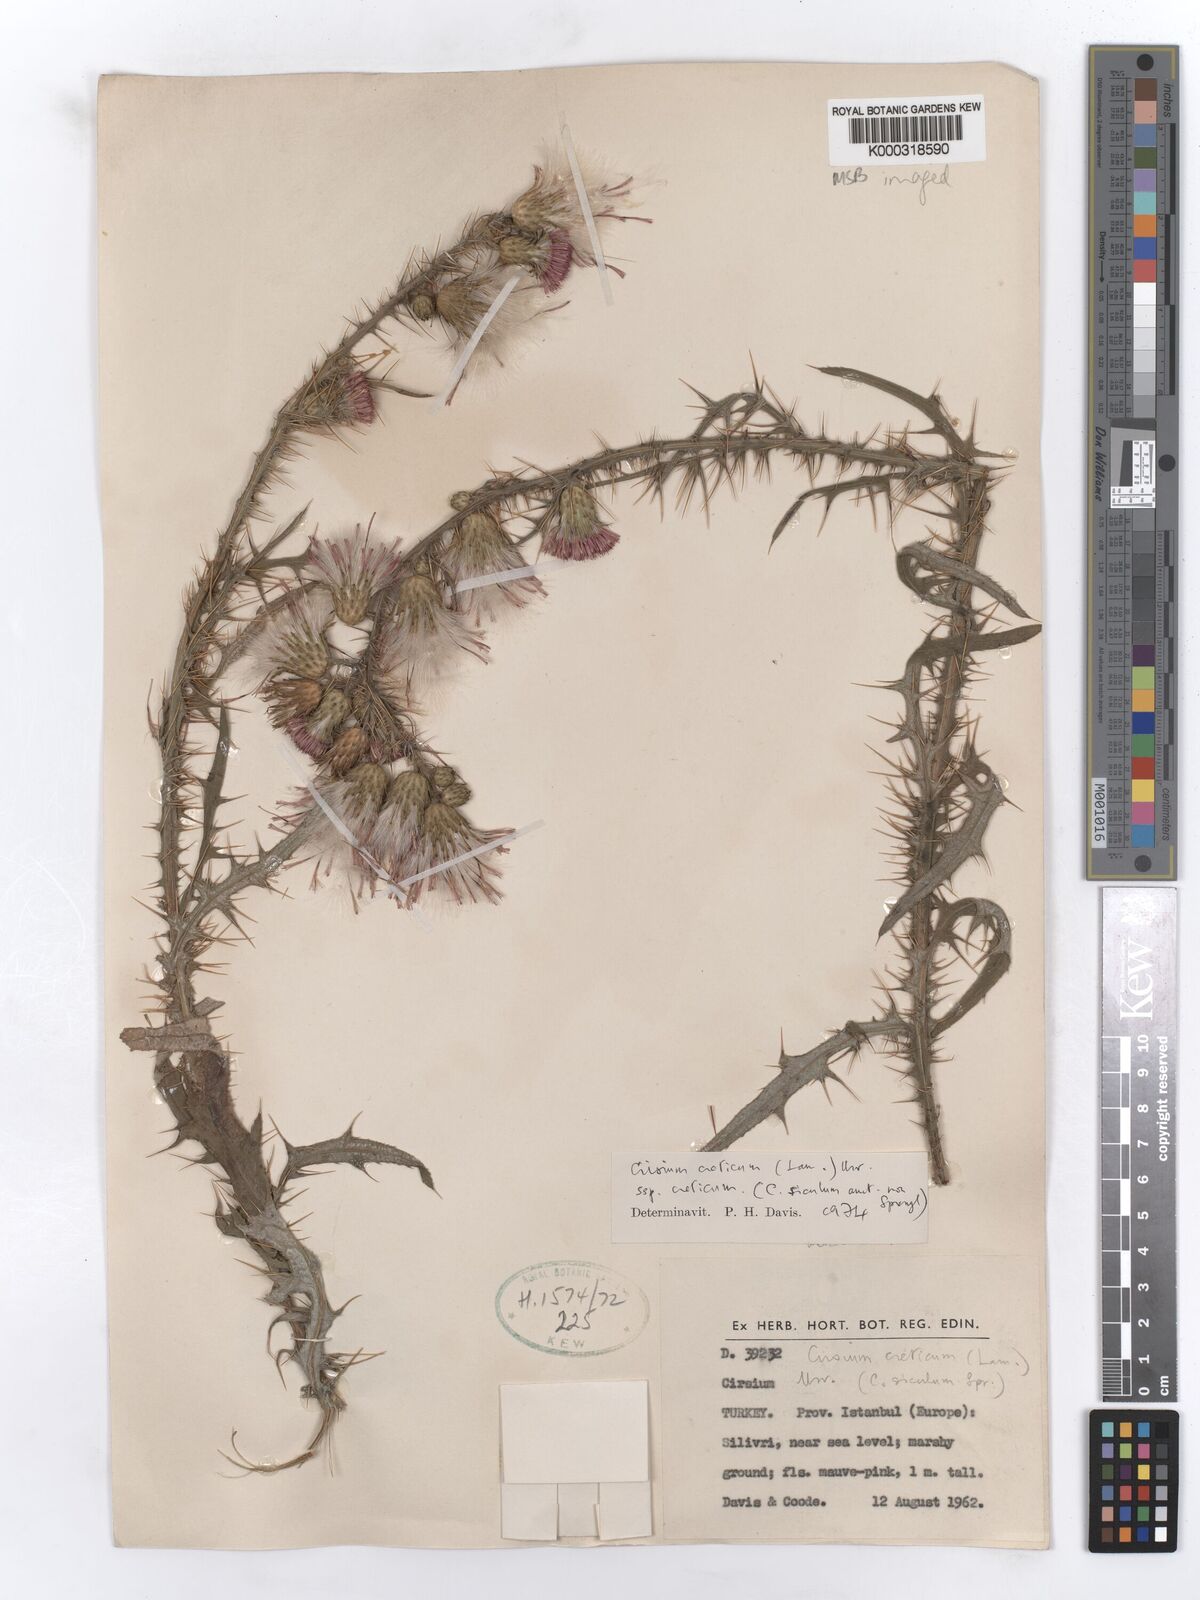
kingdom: Plantae
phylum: Tracheophyta
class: Magnoliopsida
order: Asterales
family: Asteraceae
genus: Cirsium
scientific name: Cirsium creticum
